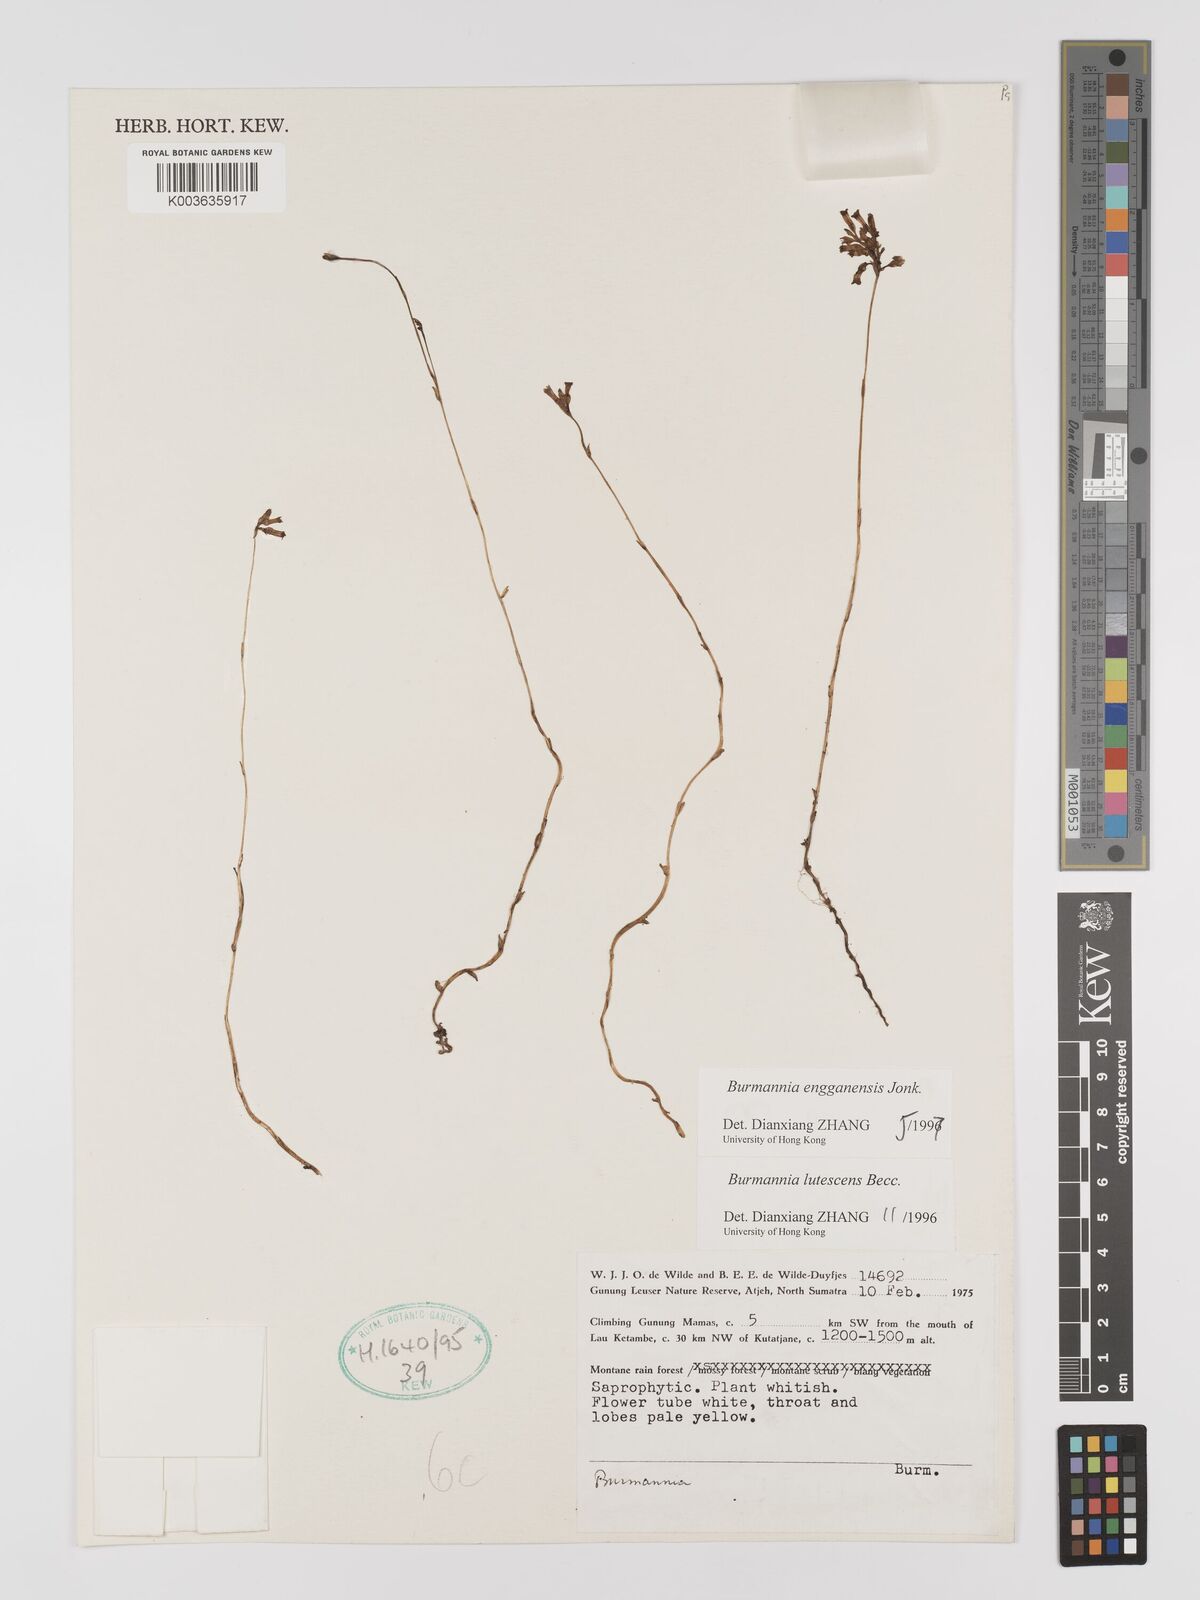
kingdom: Plantae
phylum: Tracheophyta
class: Liliopsida
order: Dioscoreales
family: Burmanniaceae
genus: Burmannia
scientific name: Burmannia engganensis
